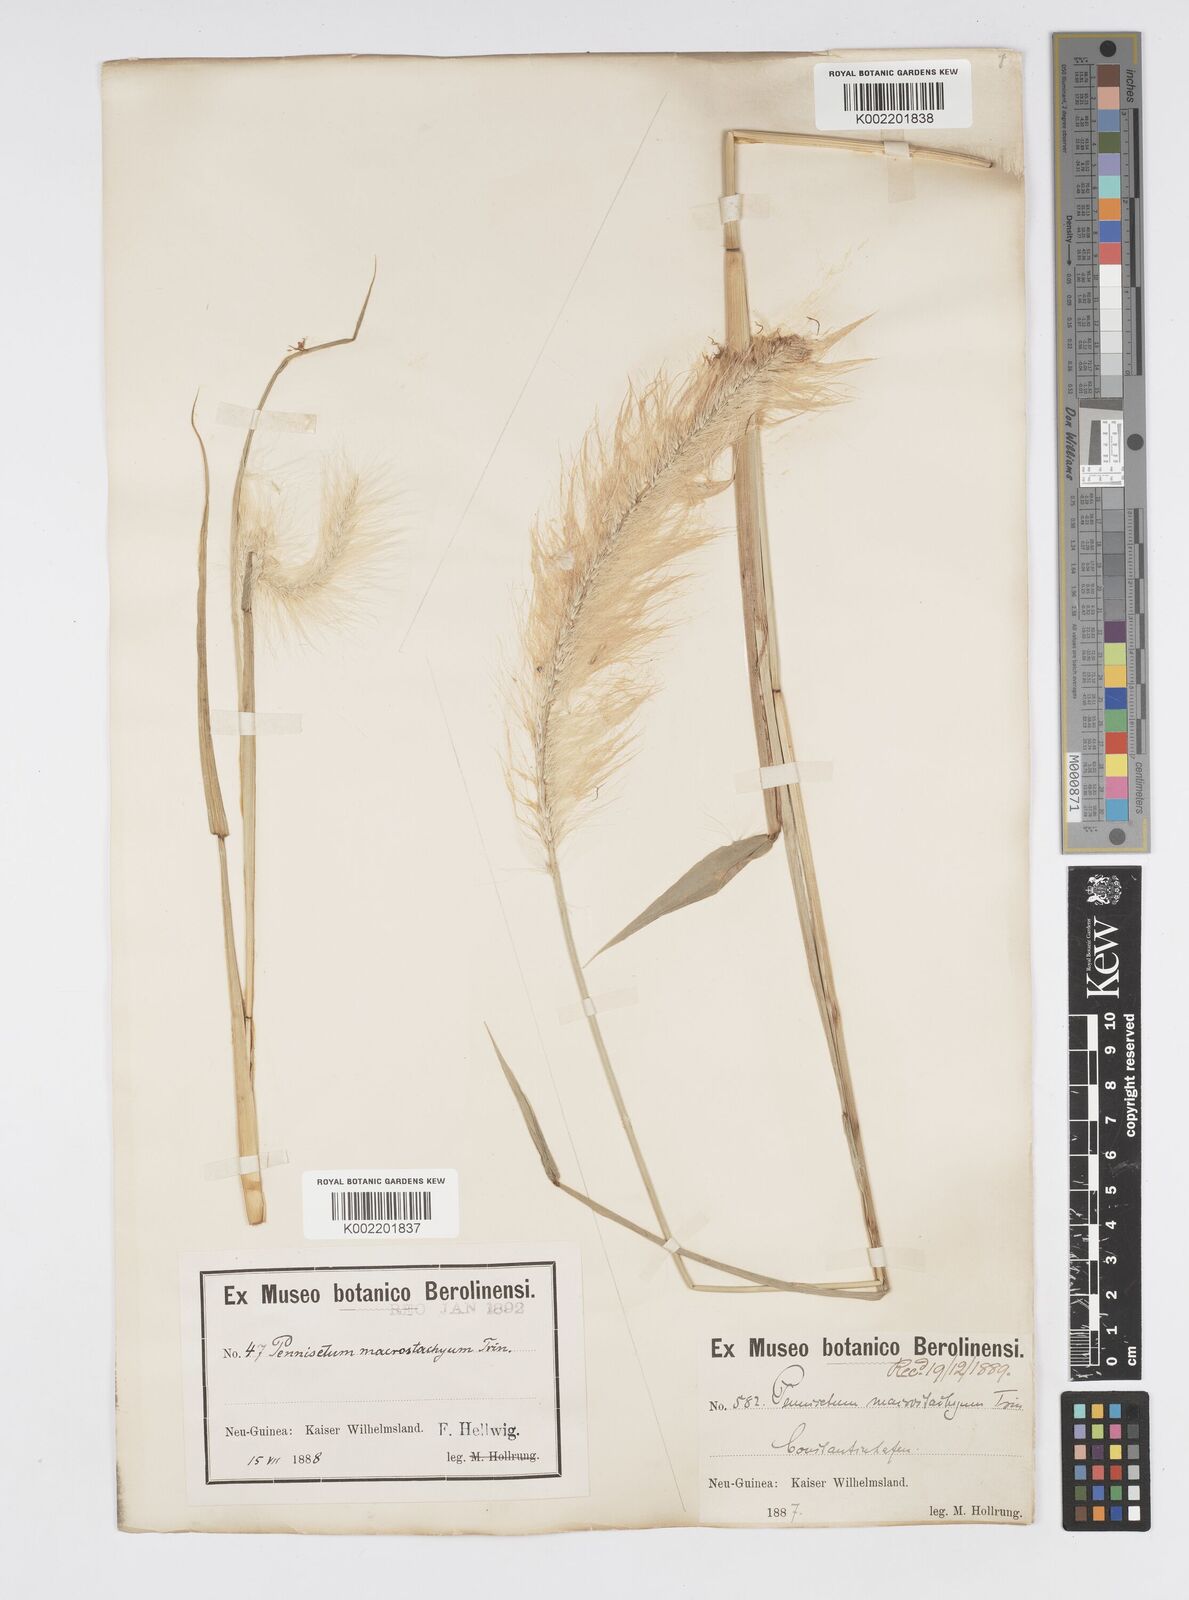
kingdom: Plantae
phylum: Tracheophyta
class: Liliopsida
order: Poales
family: Poaceae
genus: Cenchrus
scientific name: Cenchrus purpureus
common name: Elephant grass
